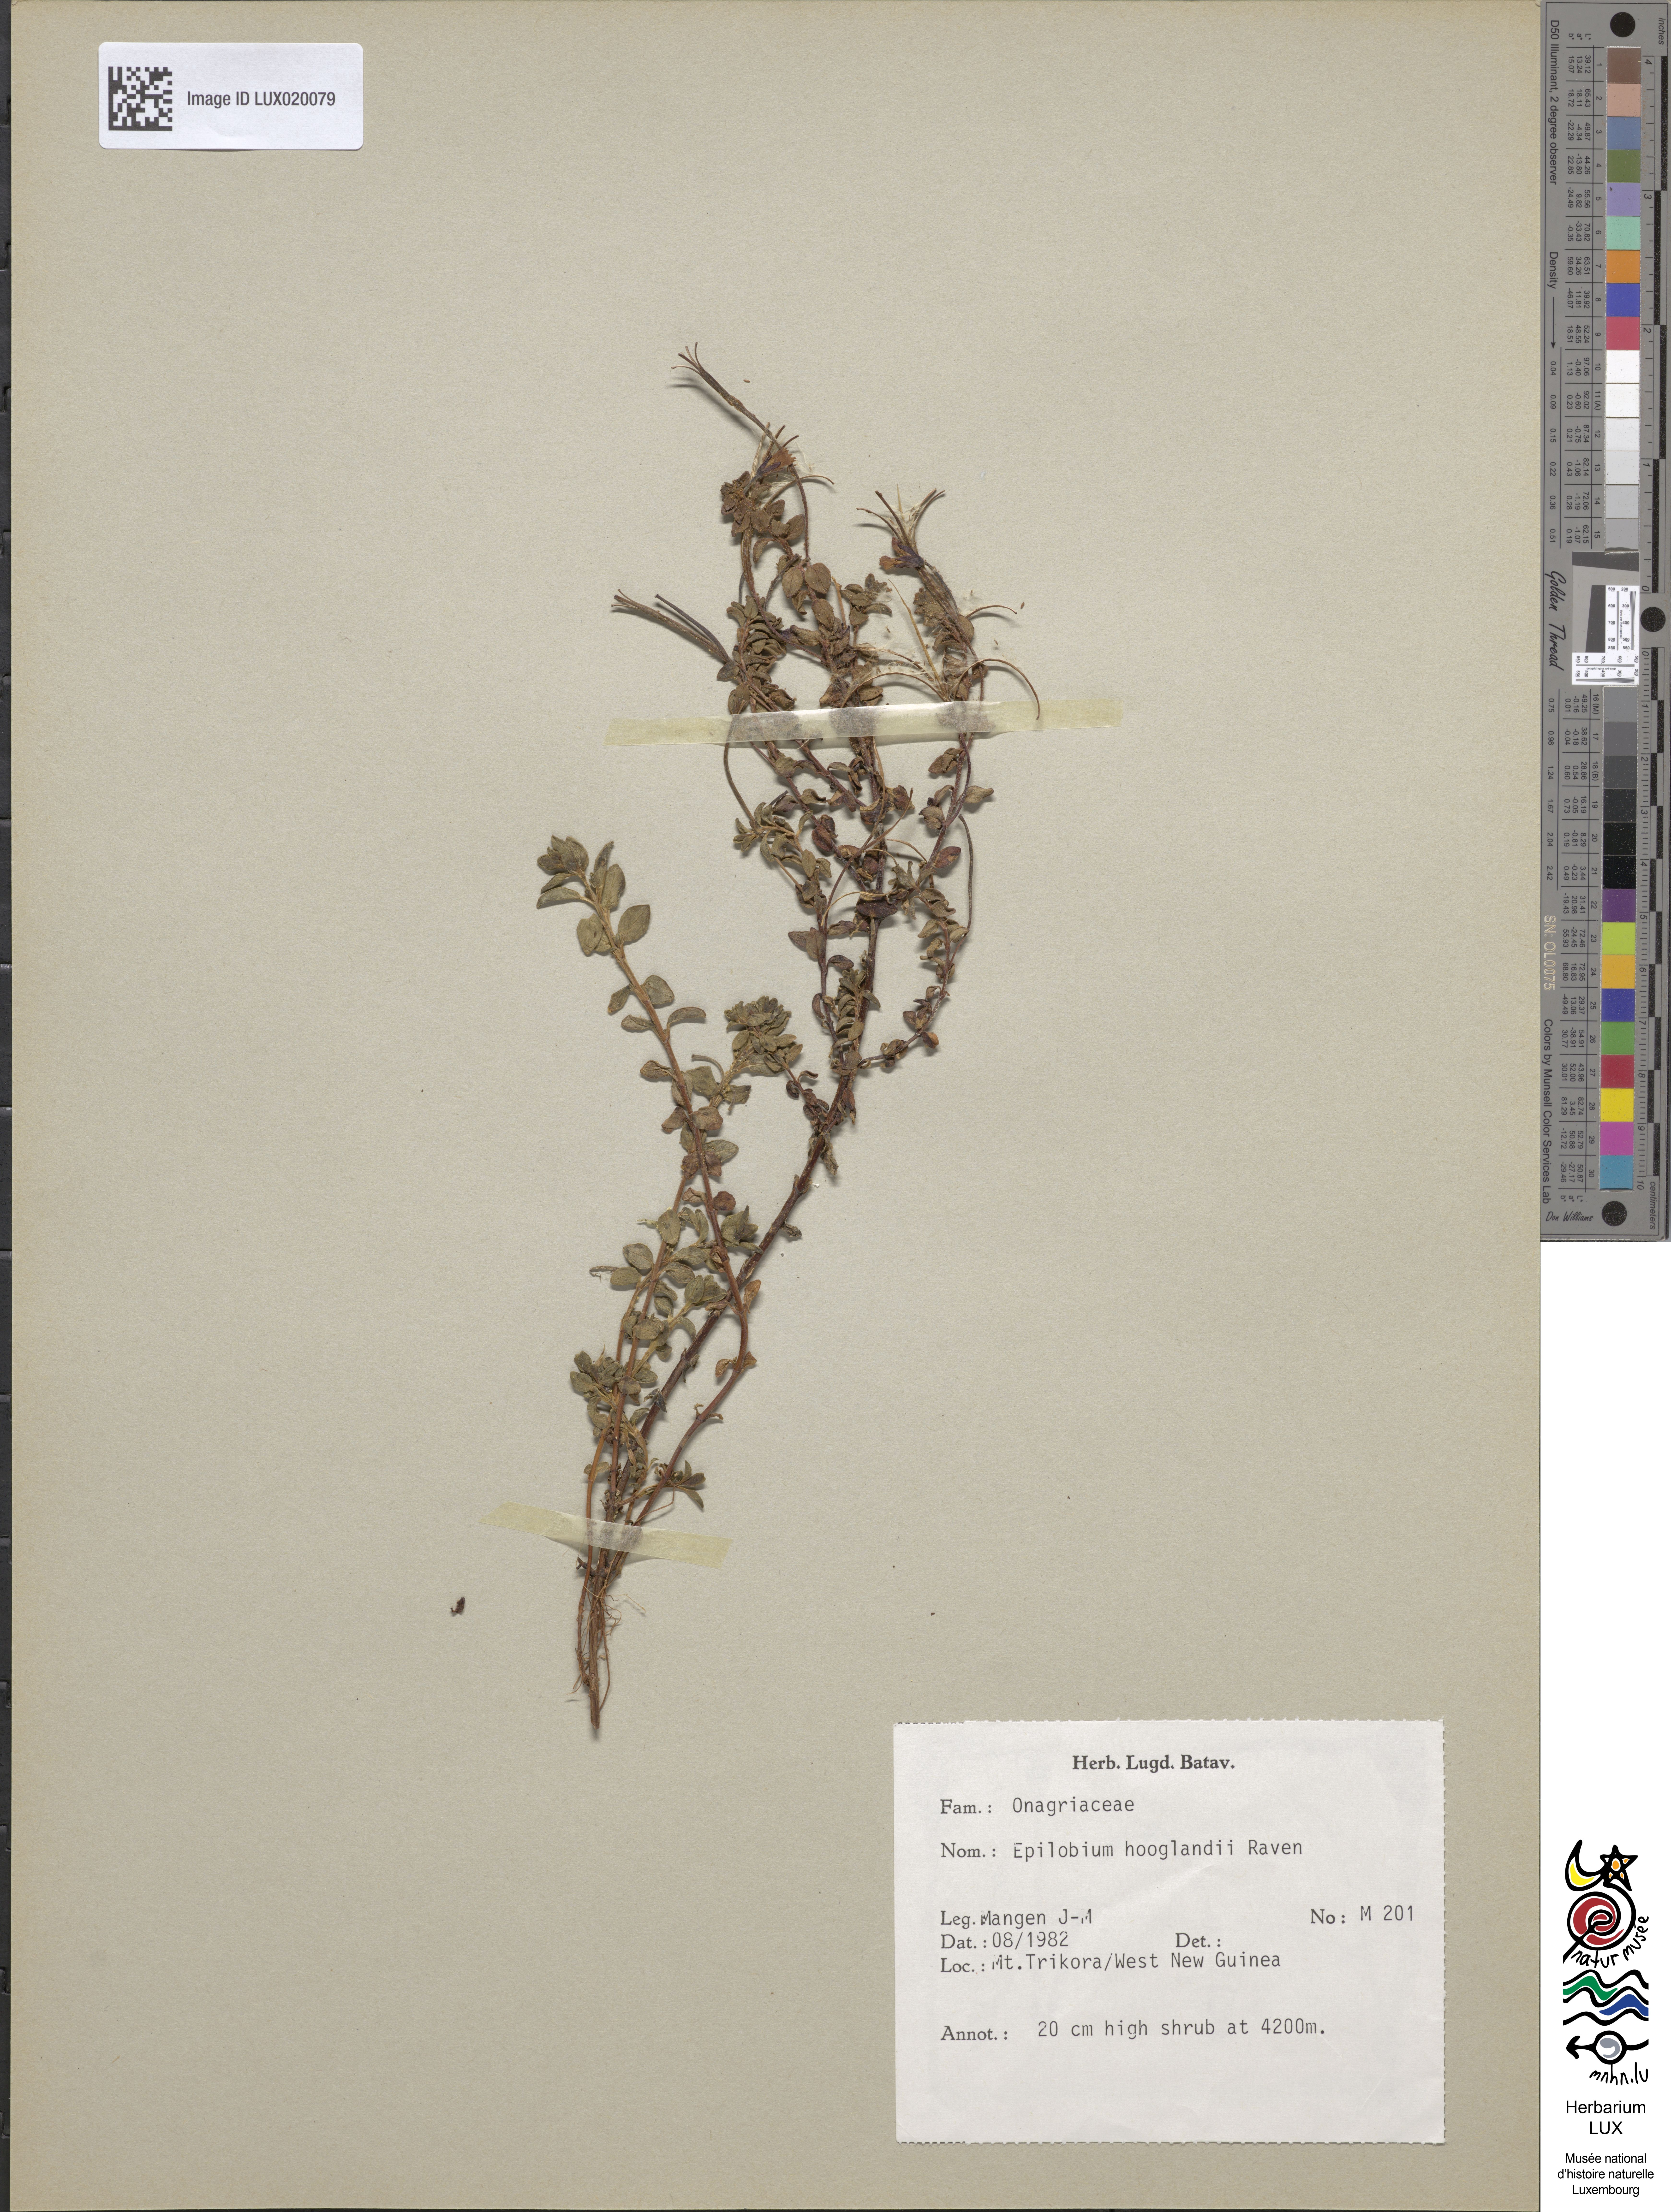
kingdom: Plantae
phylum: Tracheophyta
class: Magnoliopsida
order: Myrtales
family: Onagraceae
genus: Epilobium
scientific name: Epilobium hooglandii
